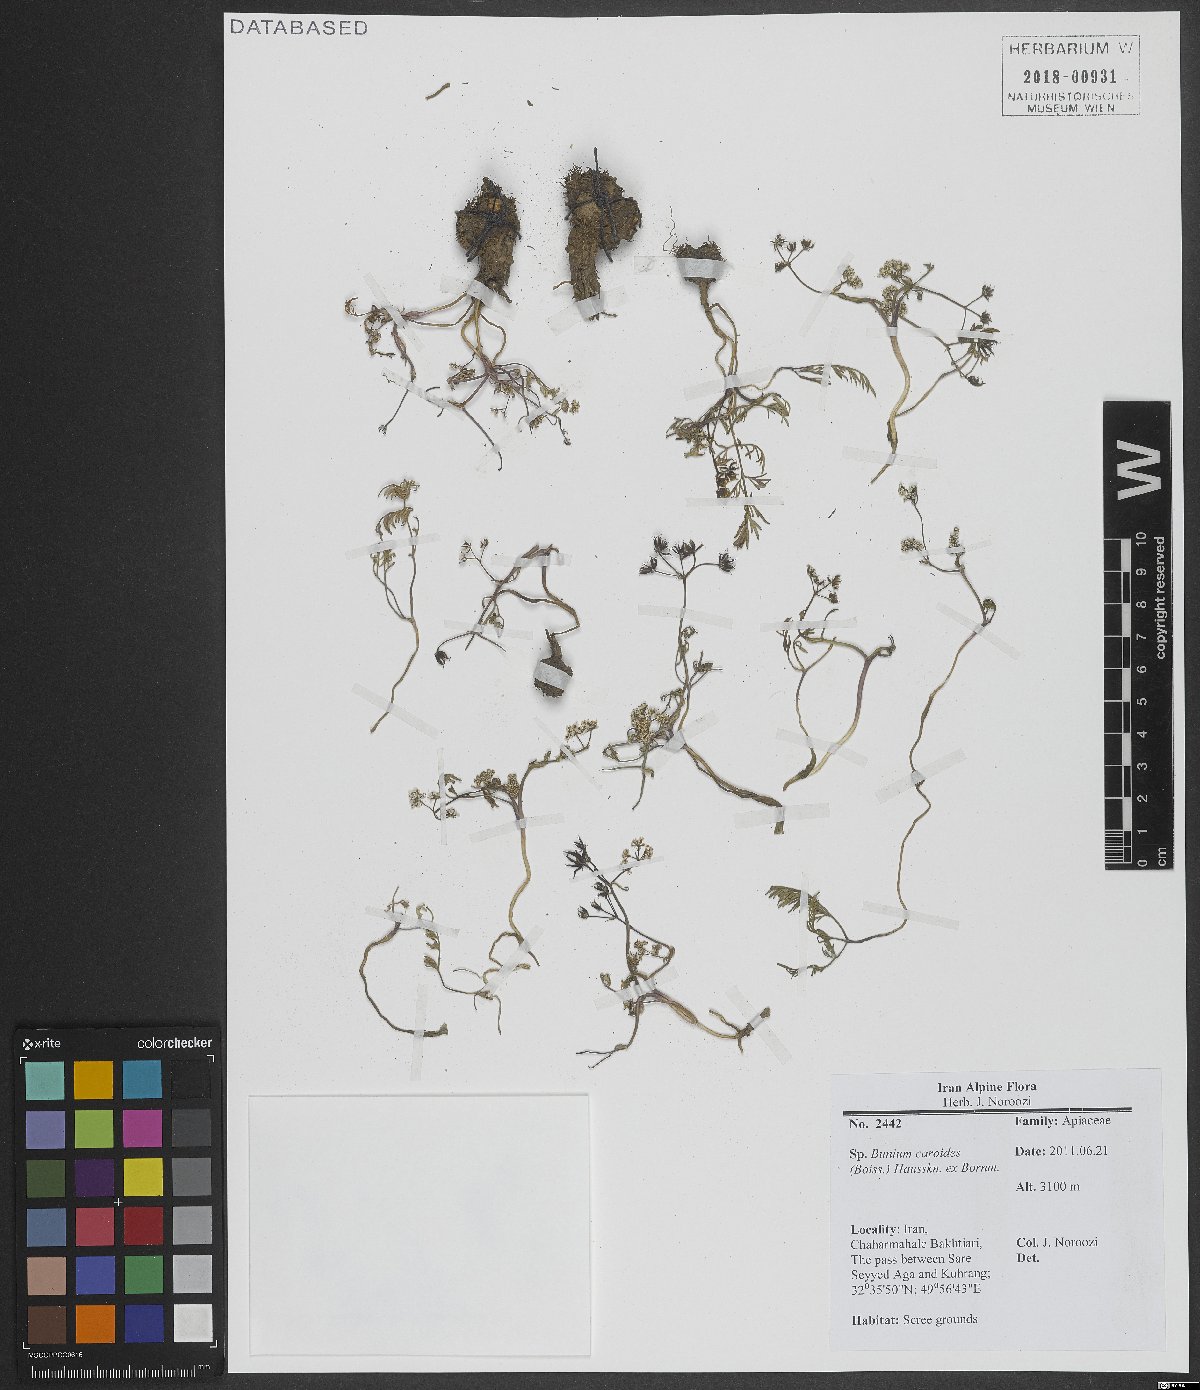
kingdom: Plantae
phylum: Tracheophyta
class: Magnoliopsida
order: Apiales
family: Apiaceae
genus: Elwendia
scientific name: Elwendia caroides
